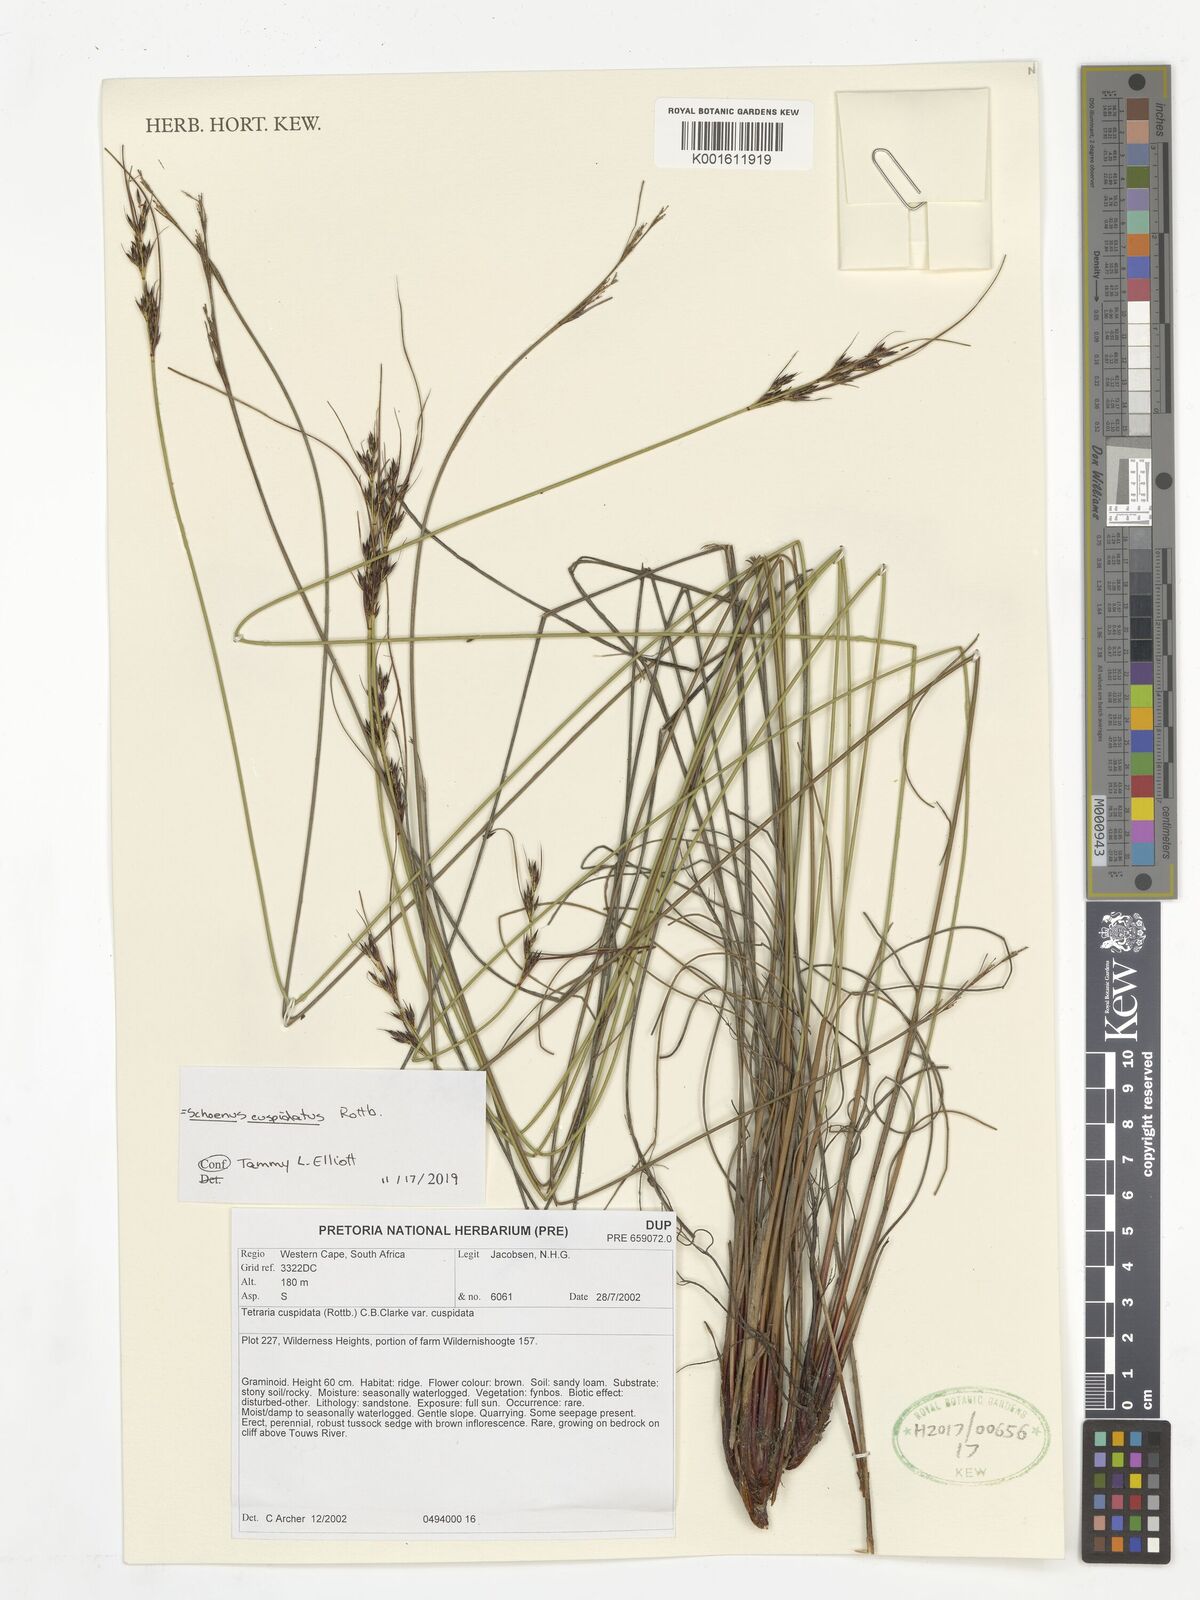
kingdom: Plantae
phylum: Tracheophyta
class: Liliopsida
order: Poales
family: Cyperaceae
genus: Schoenus
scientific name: Schoenus cuspidatus
